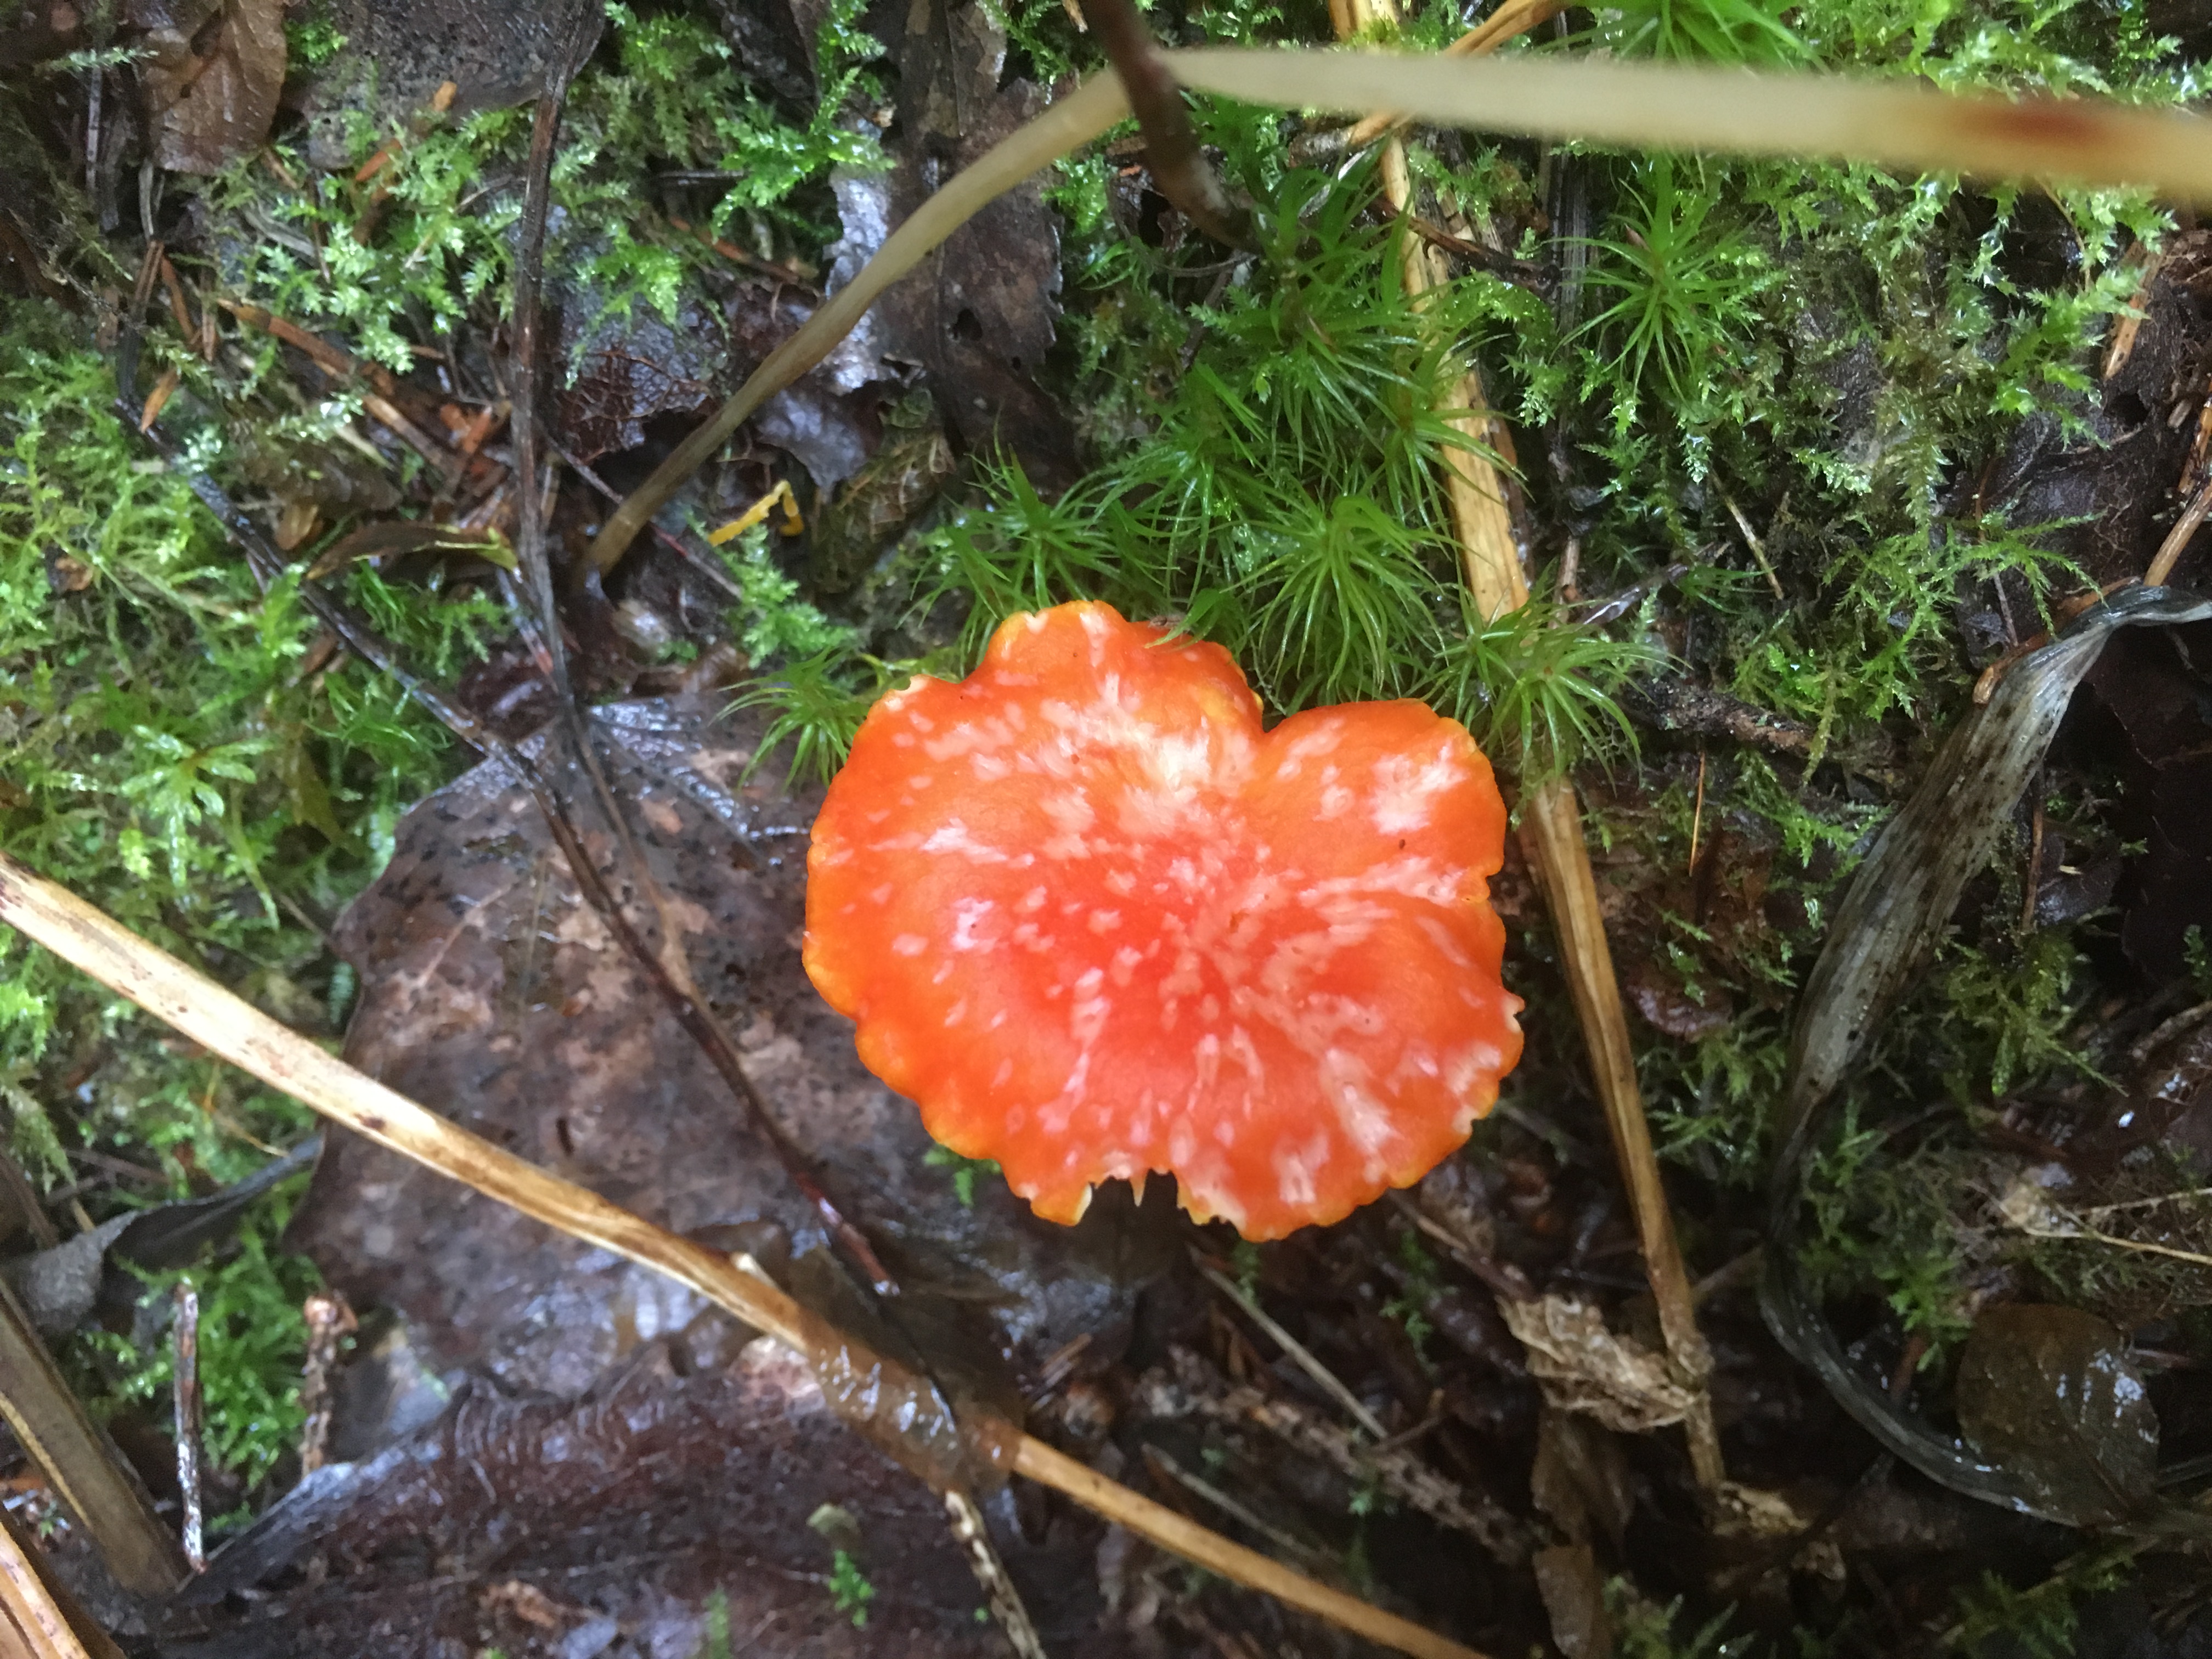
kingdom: Fungi
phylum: Basidiomycota
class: Agaricomycetes
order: Agaricales
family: Hygrophoraceae
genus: Hygrocybe
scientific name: Hygrocybe reidii
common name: Honey waxcap
